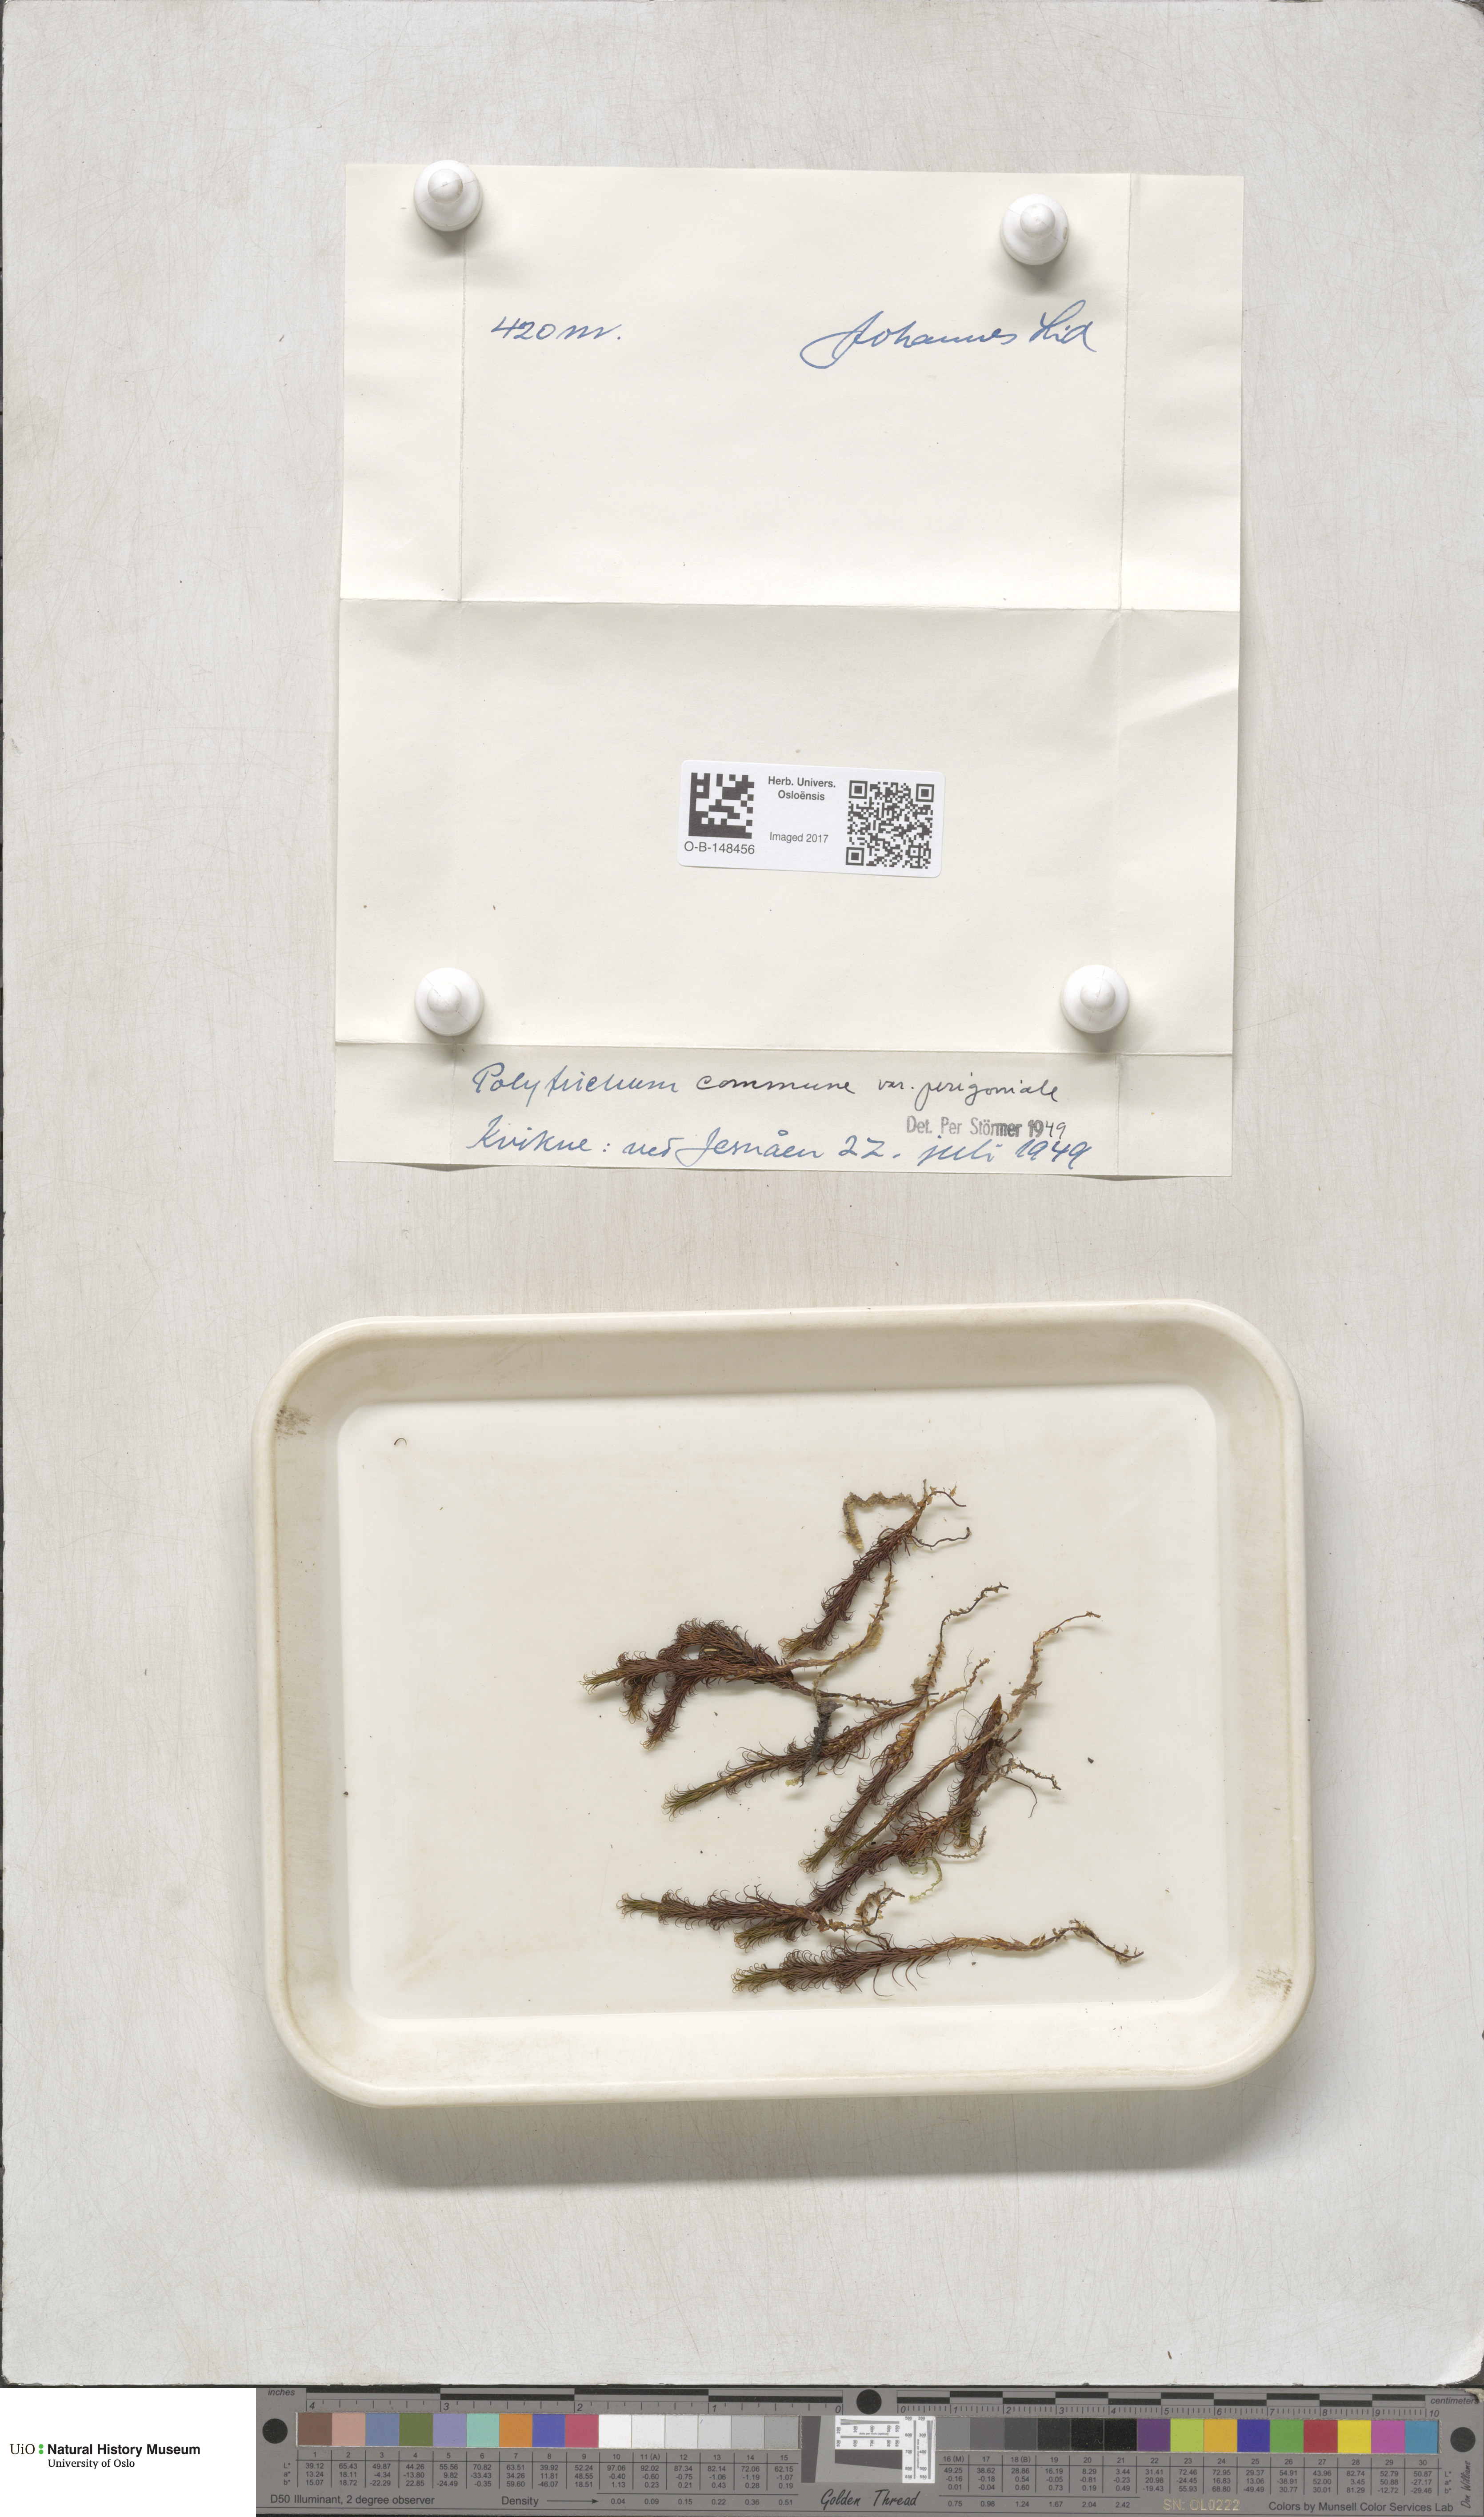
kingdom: Plantae
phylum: Bryophyta
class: Polytrichopsida
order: Polytrichales
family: Polytrichaceae
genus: Polytrichum
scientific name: Polytrichum perigoniale
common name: Dense haircap moss
